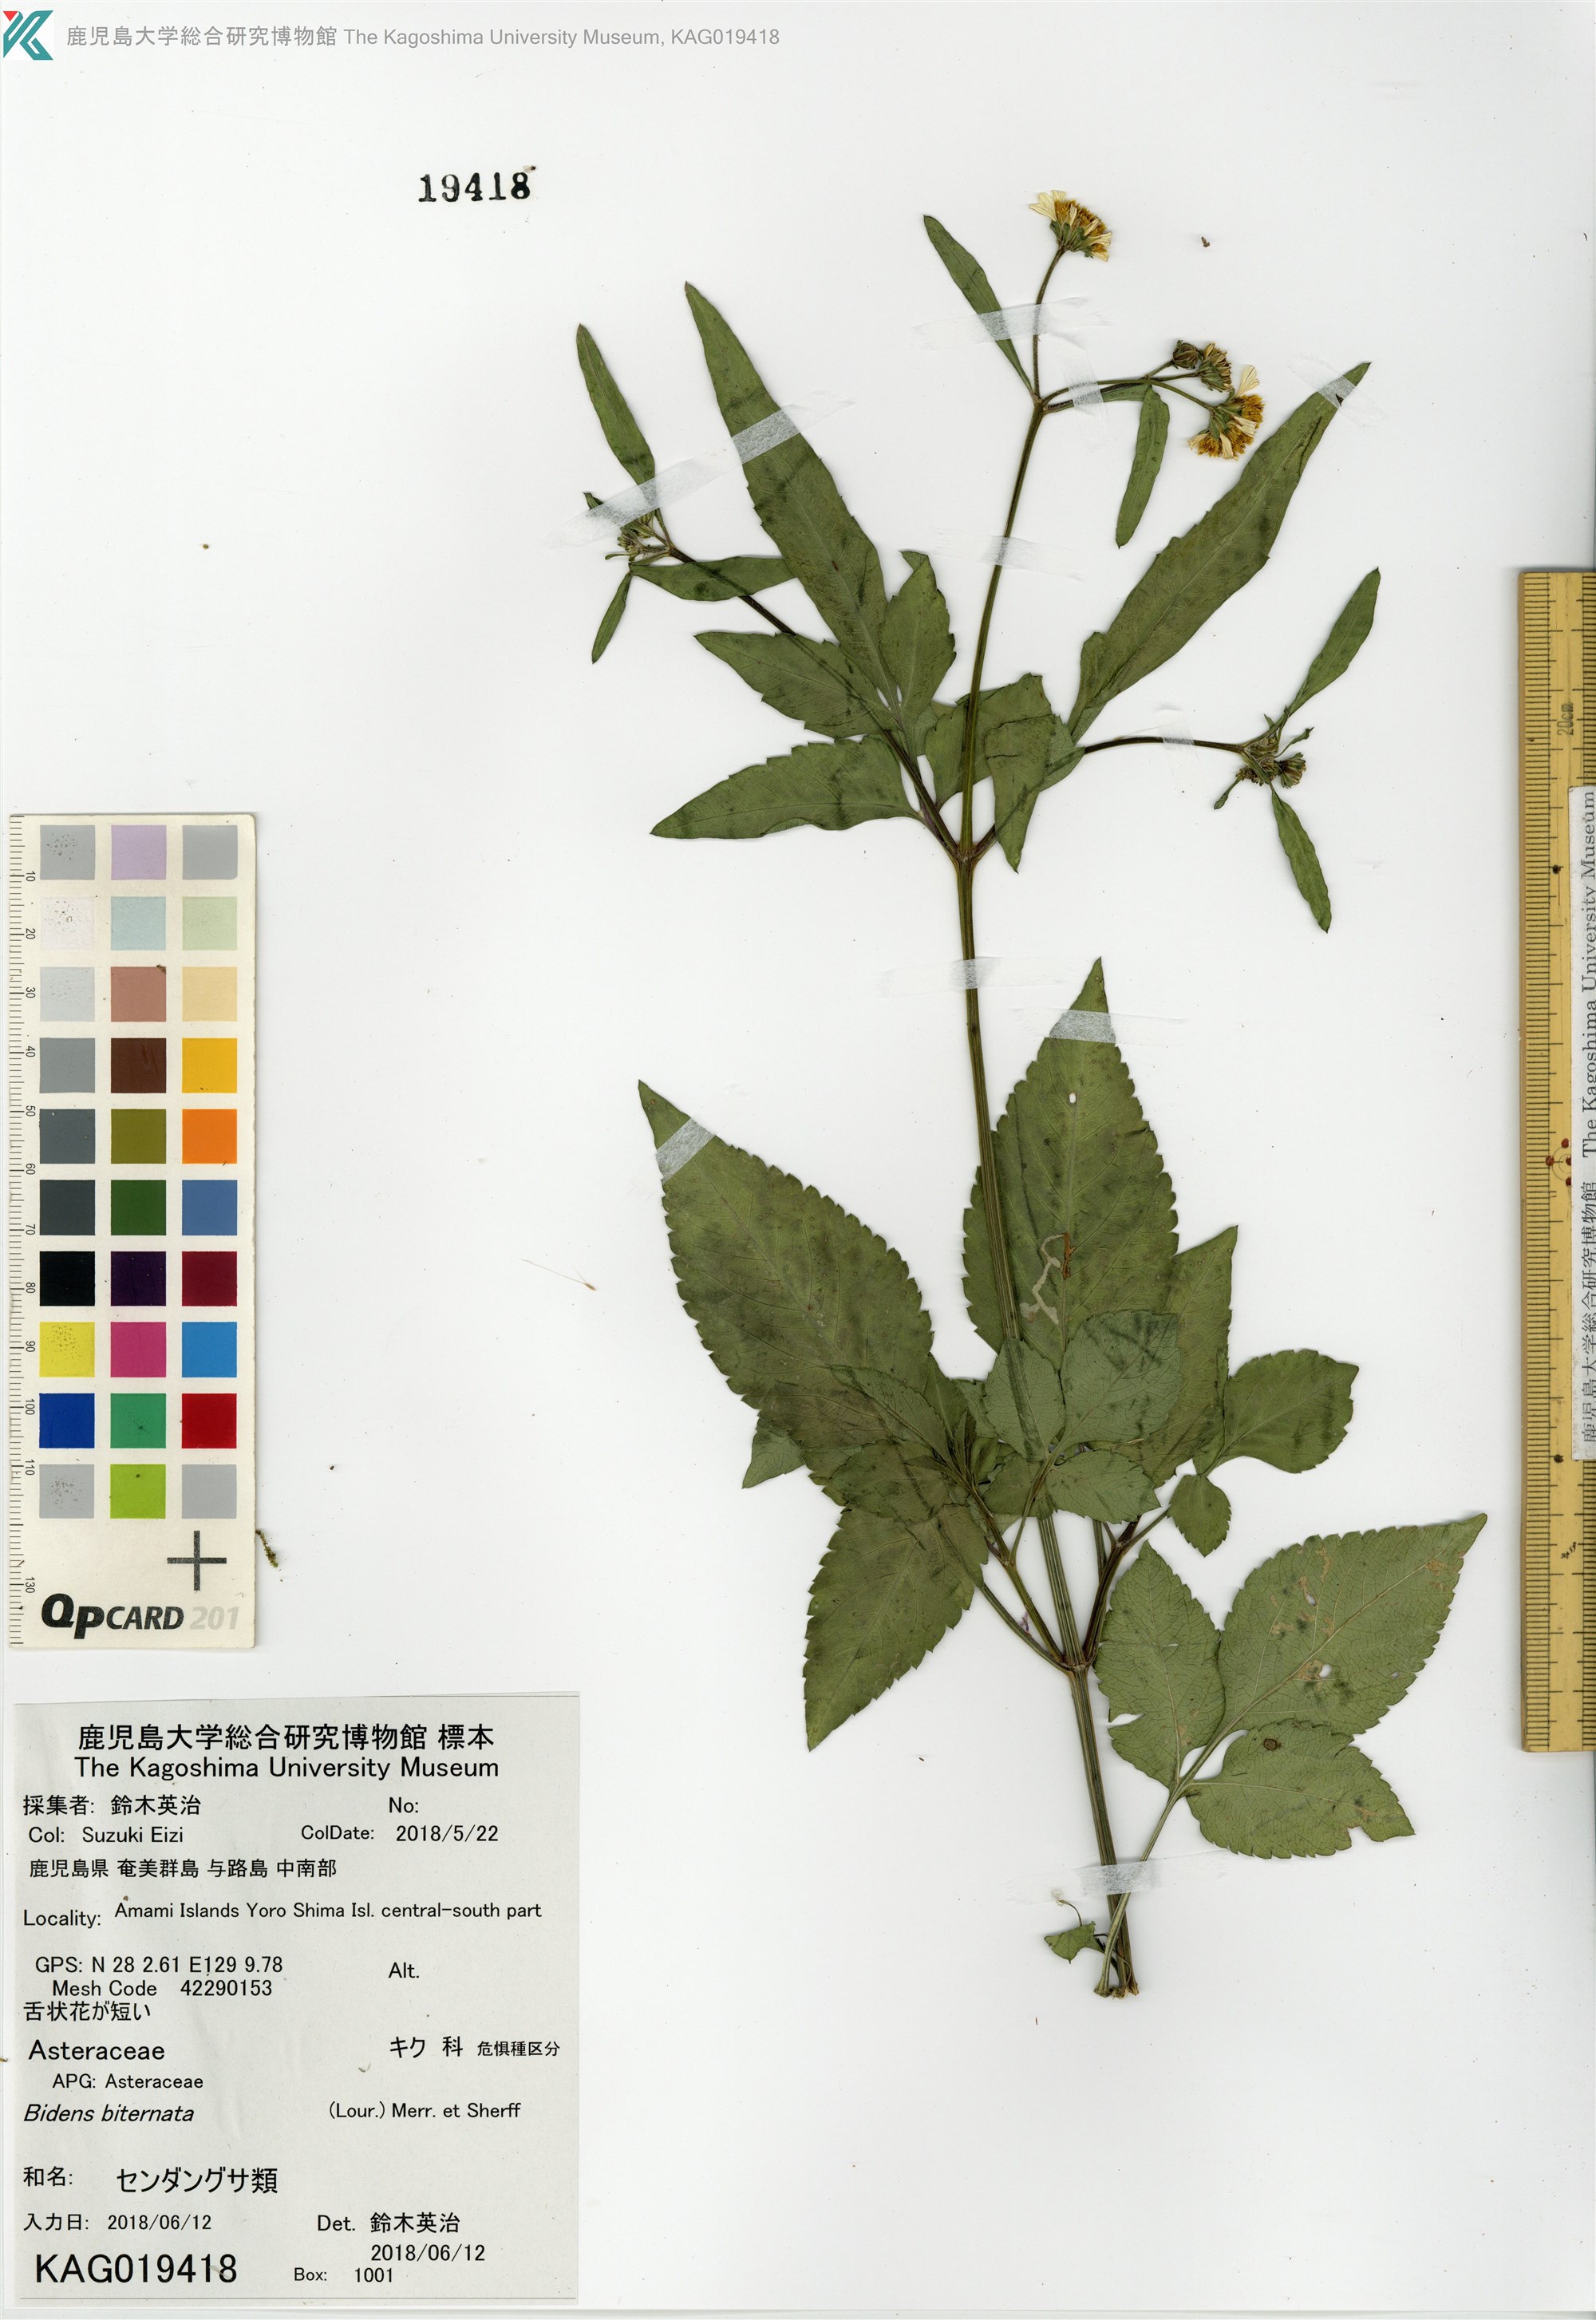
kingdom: Plantae
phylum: Tracheophyta
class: Magnoliopsida
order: Asterales
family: Asteraceae
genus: Bidens
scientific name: Bidens pilosa
